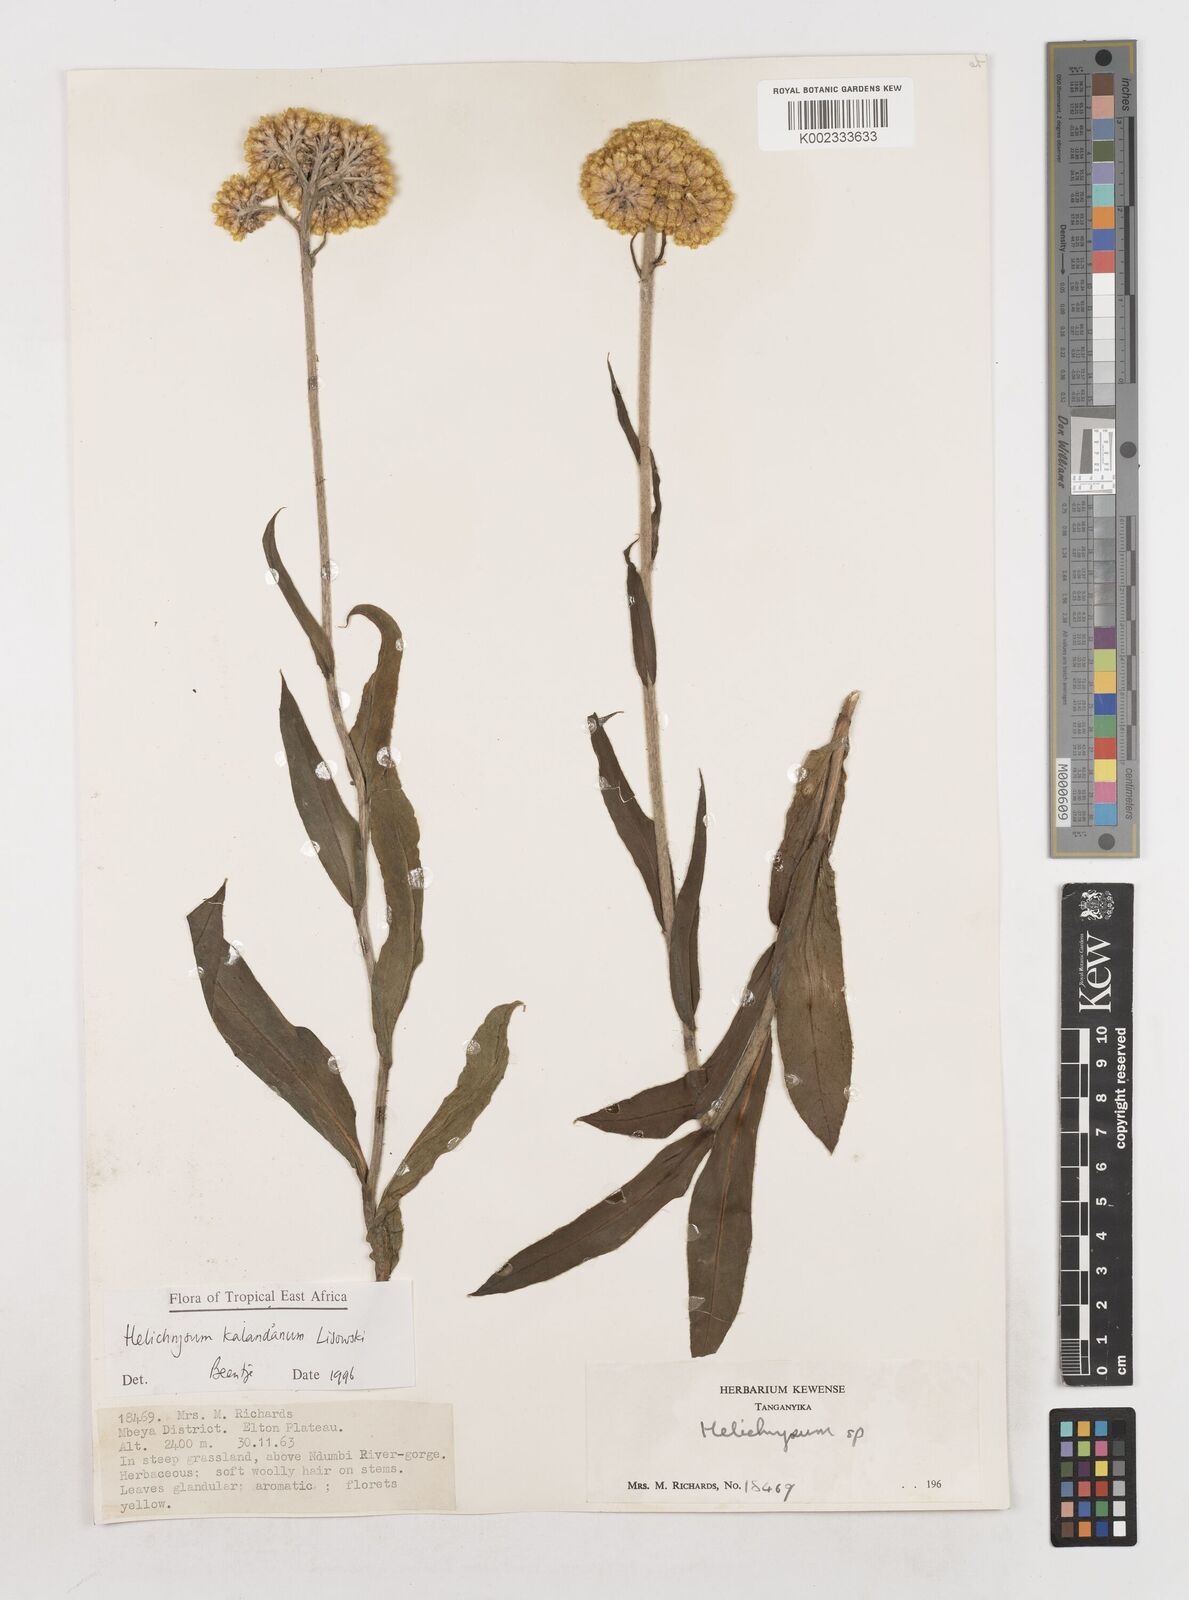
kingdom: Plantae
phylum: Tracheophyta
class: Magnoliopsida
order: Asterales
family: Asteraceae
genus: Helichrysum
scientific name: Helichrysum kalandanum
